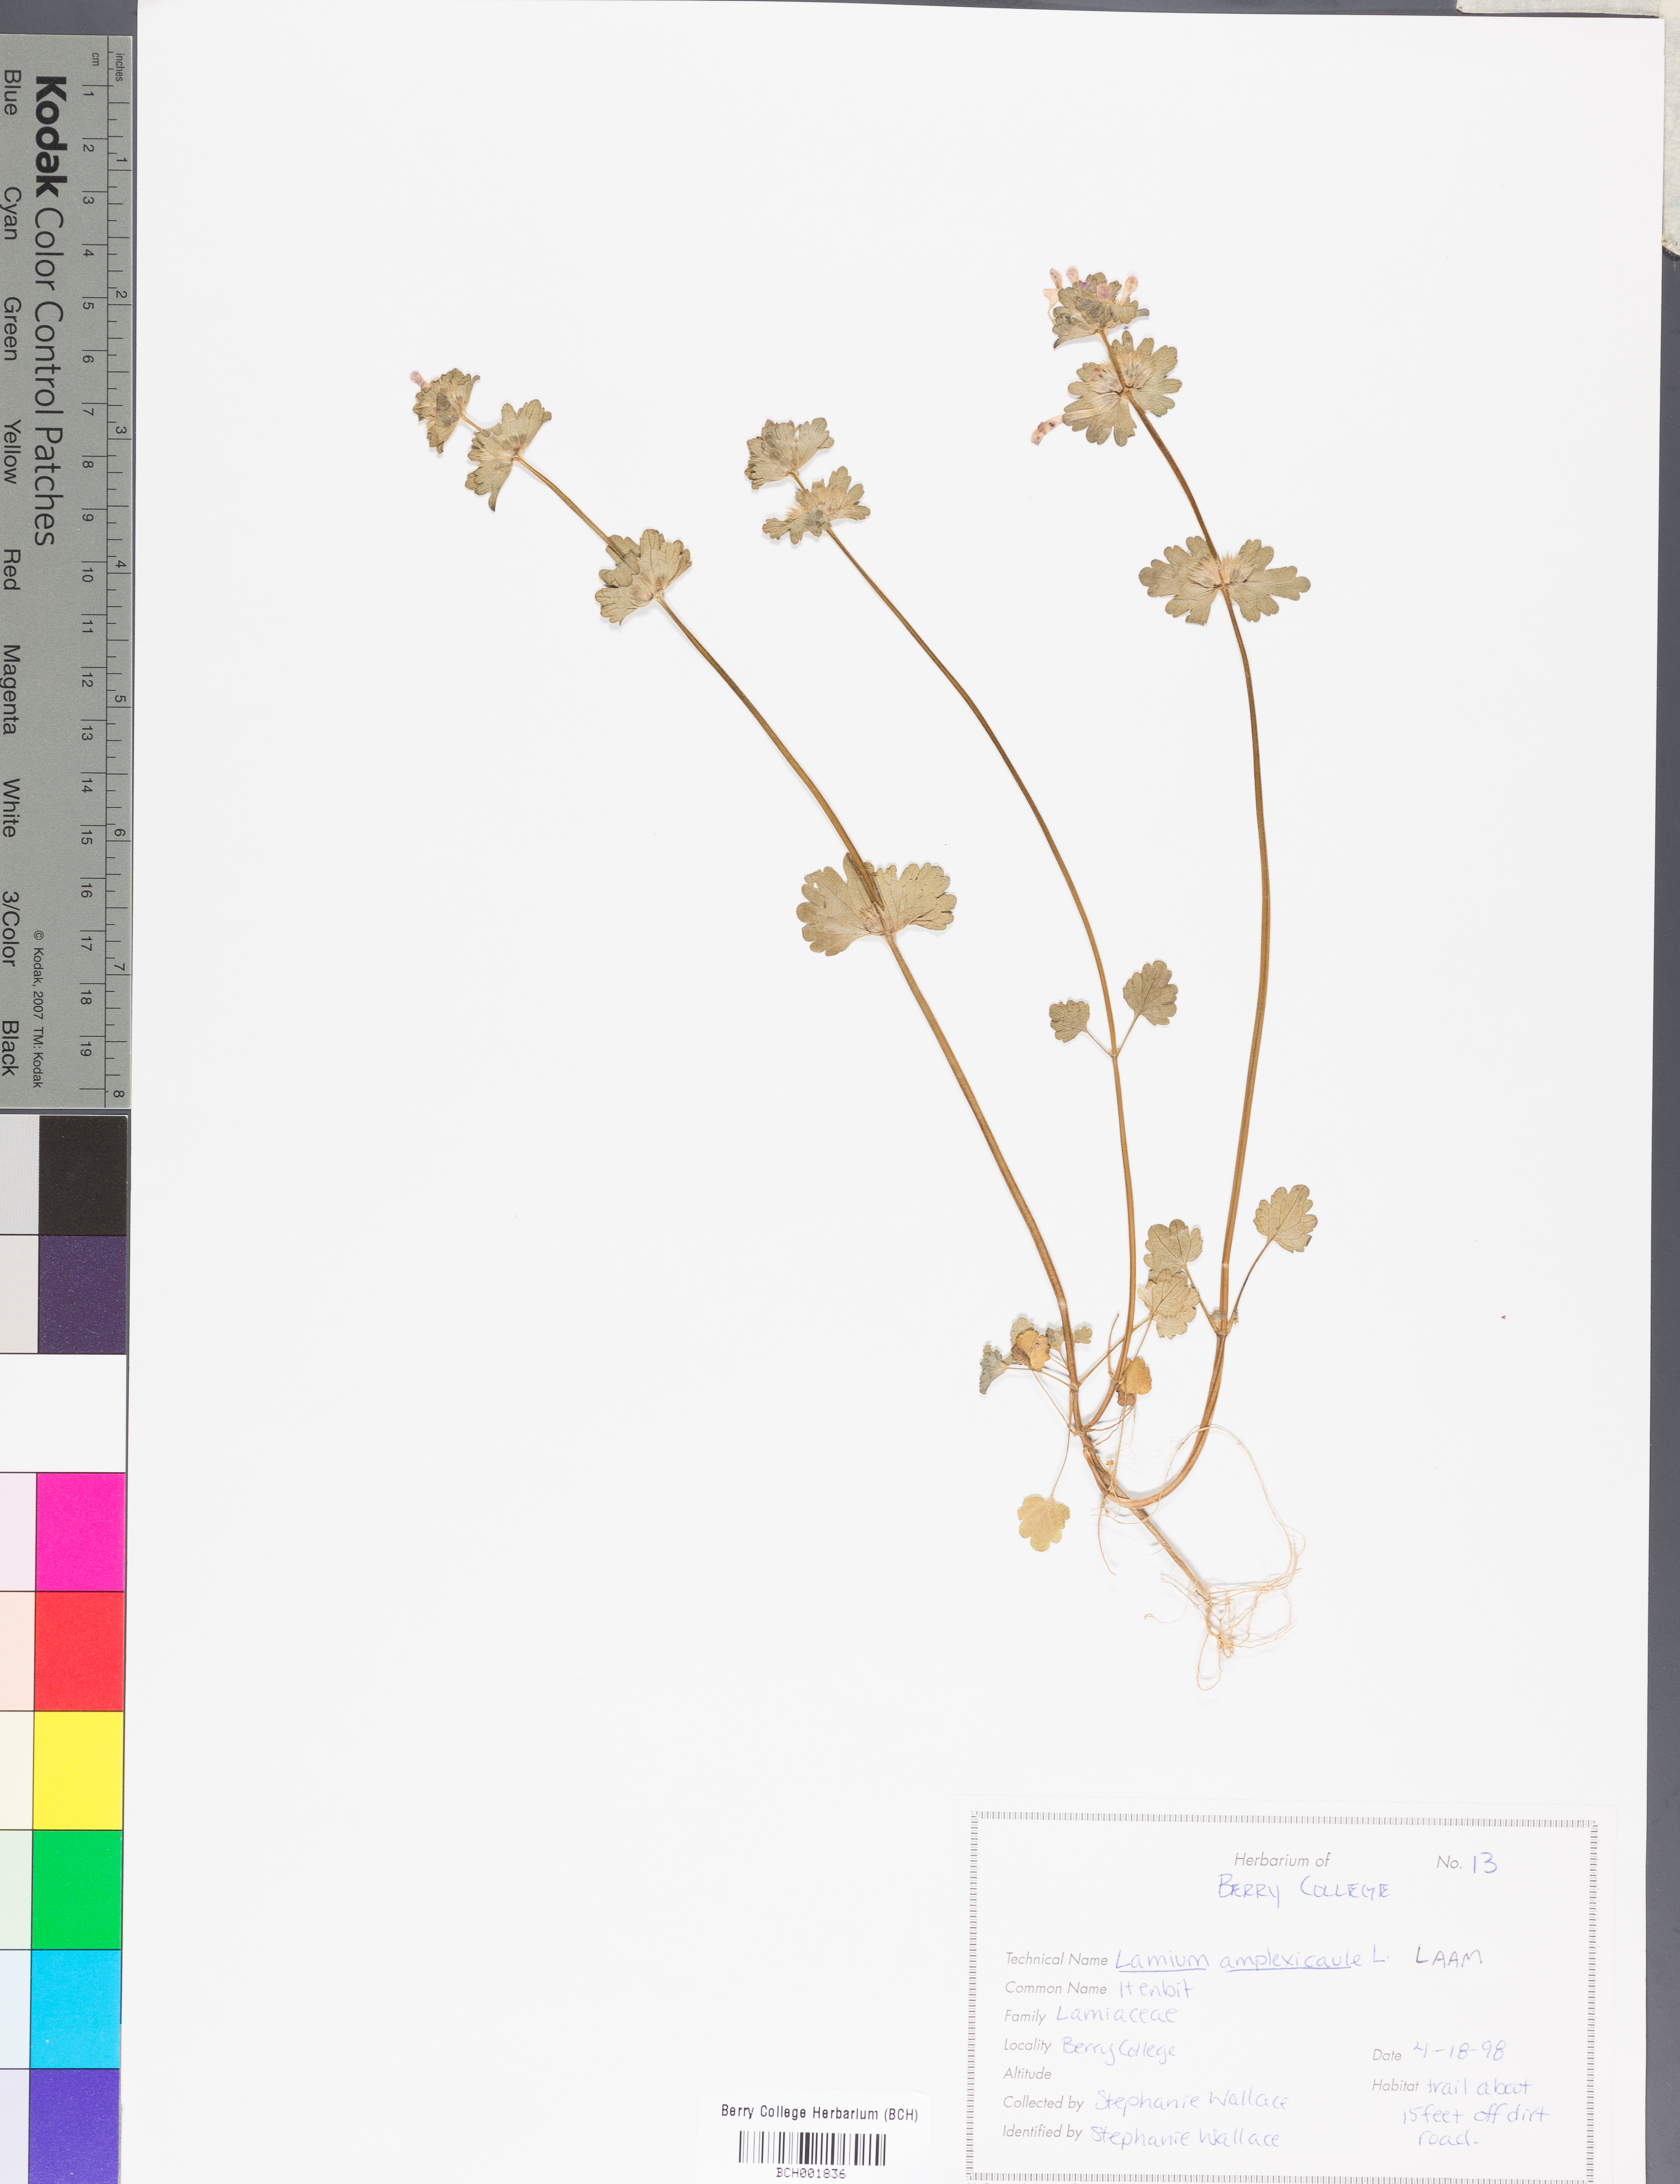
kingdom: Plantae
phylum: Tracheophyta
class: Magnoliopsida
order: Lamiales
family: Lamiaceae
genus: Lamium
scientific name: Lamium amplexicaule
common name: Henbit dead-nettle
